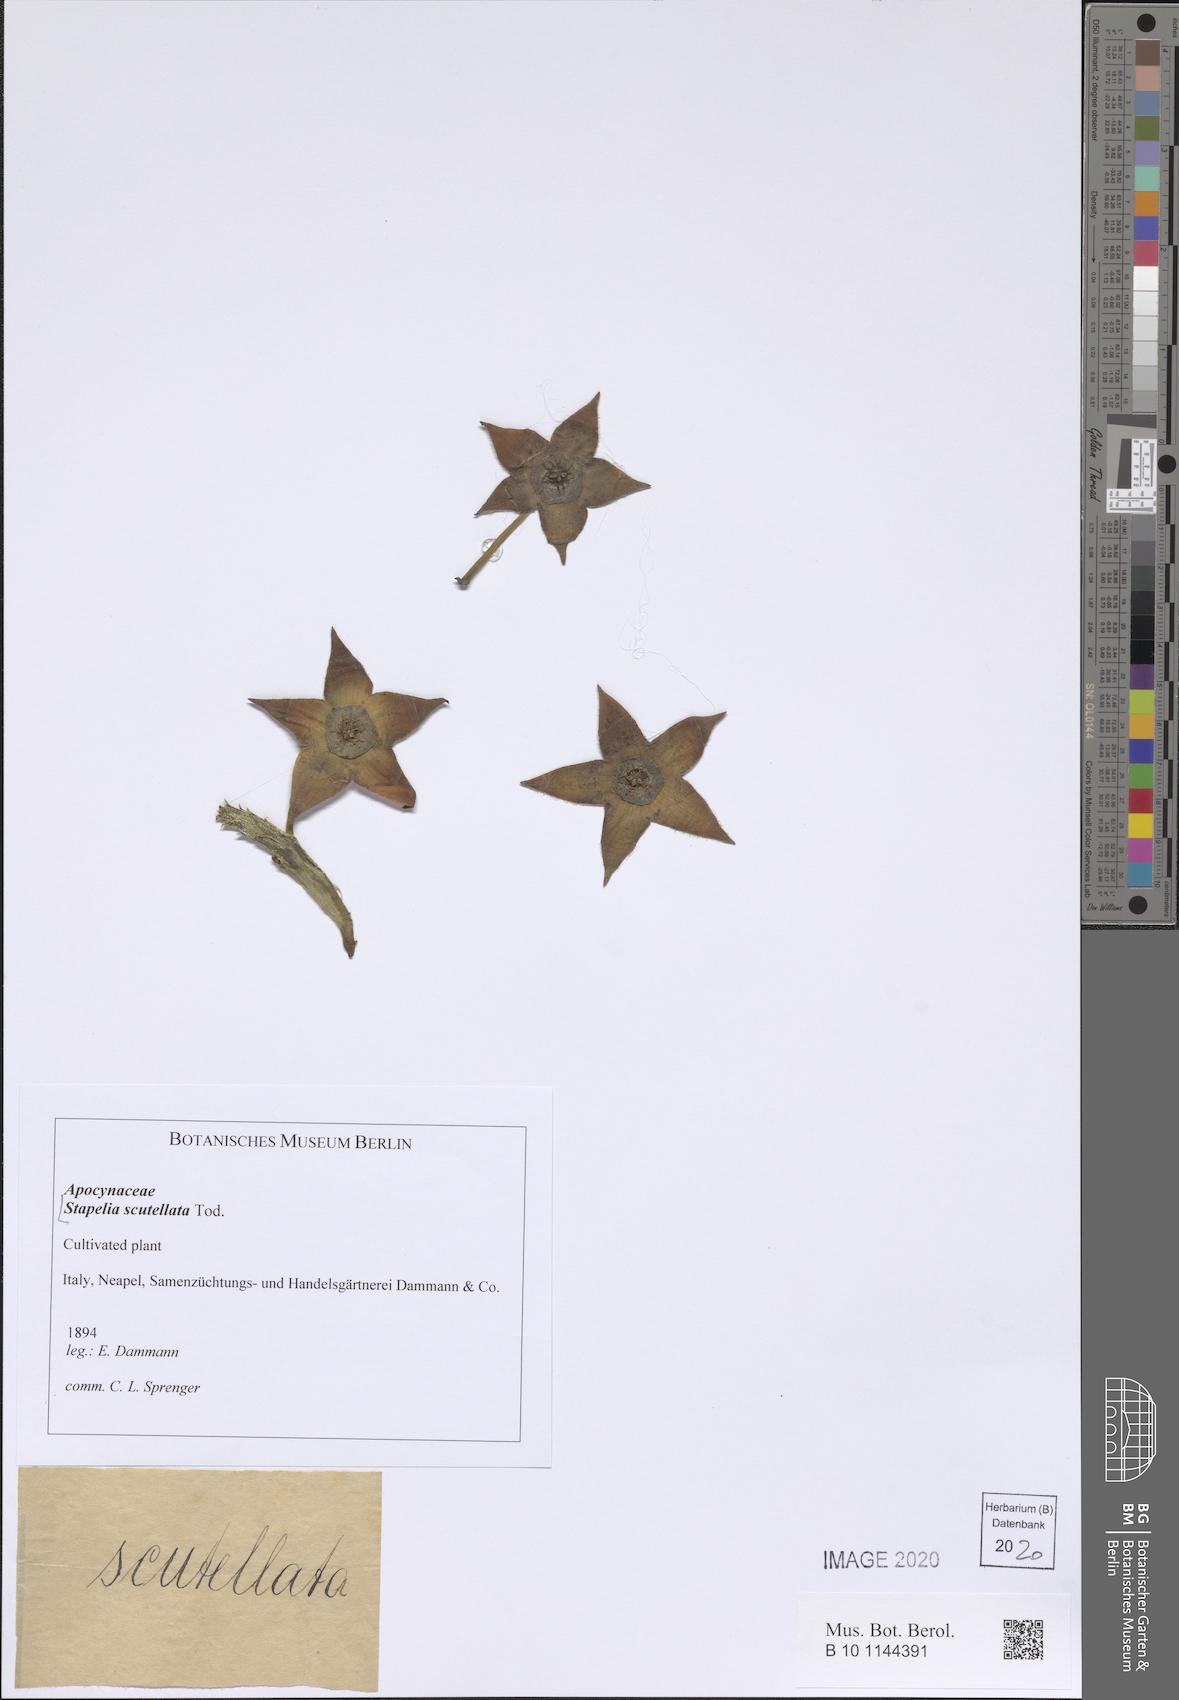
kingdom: Plantae
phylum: Tracheophyta
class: Magnoliopsida
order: Gentianales
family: Apocynaceae
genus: Ceropegia
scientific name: Ceropegia mixta
